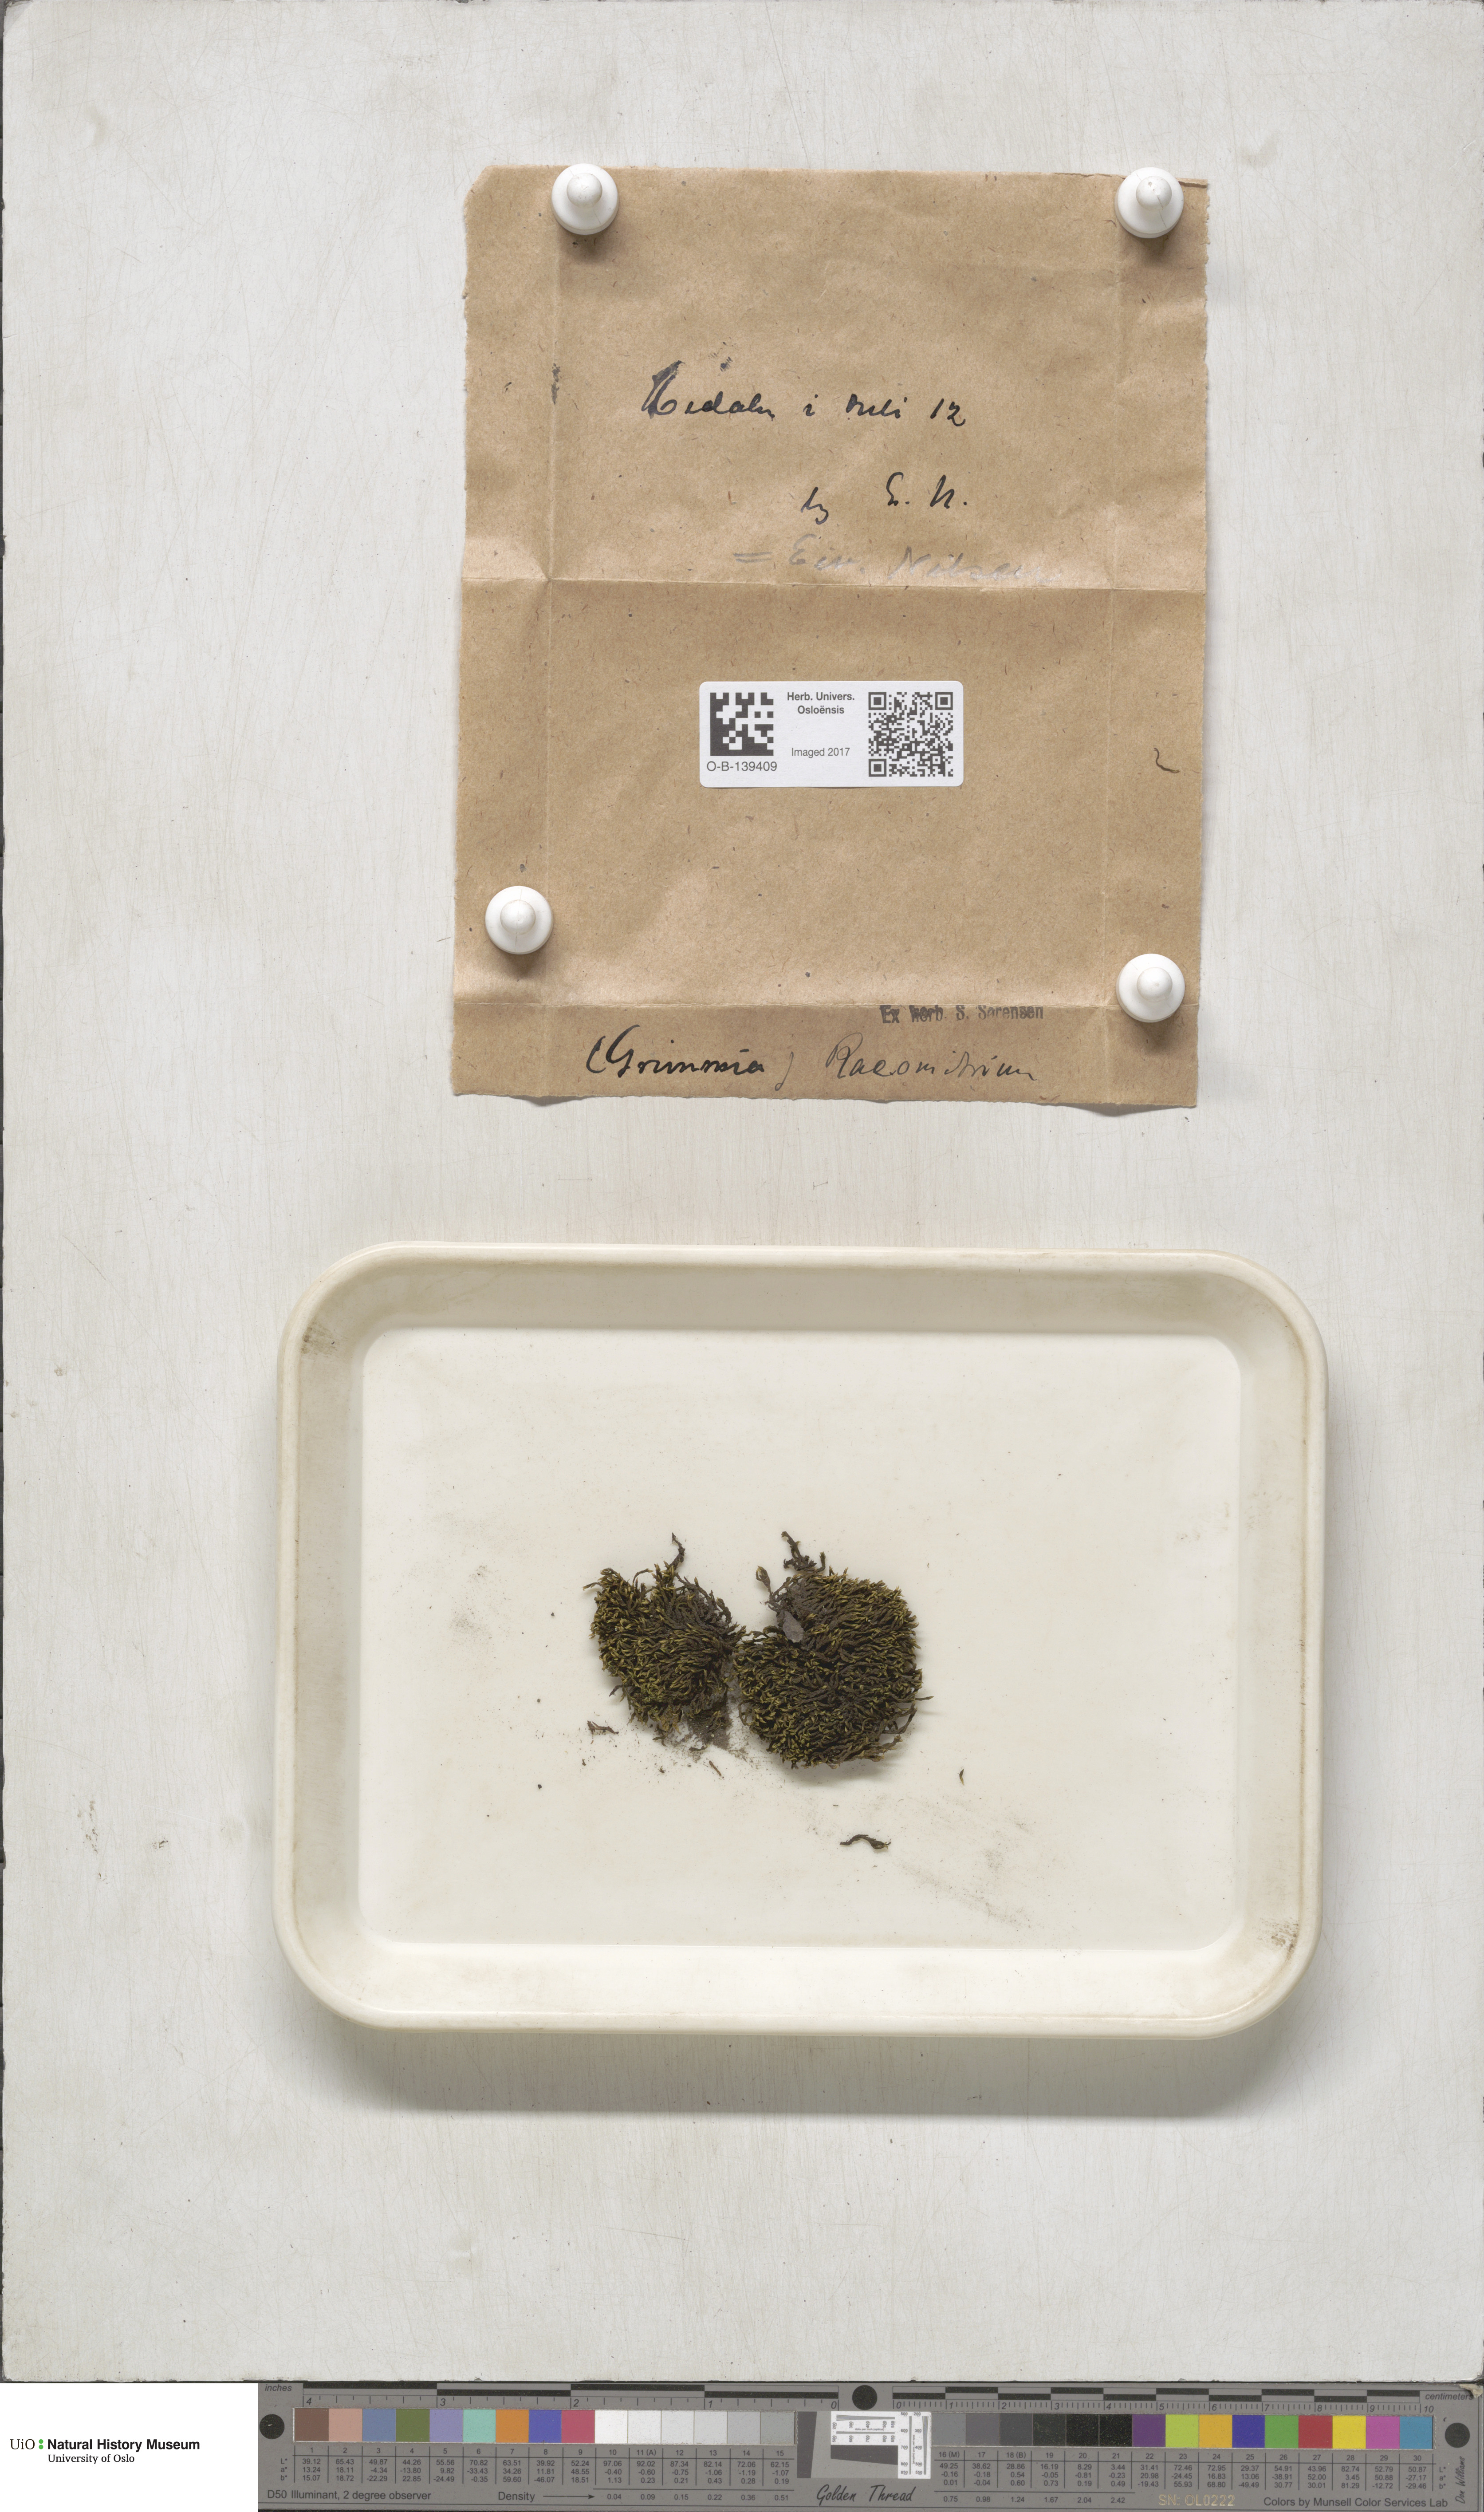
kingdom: Plantae
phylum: Bryophyta
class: Bryopsida
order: Grimmiales
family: Grimmiaceae
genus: Racomitrium
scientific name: Racomitrium
